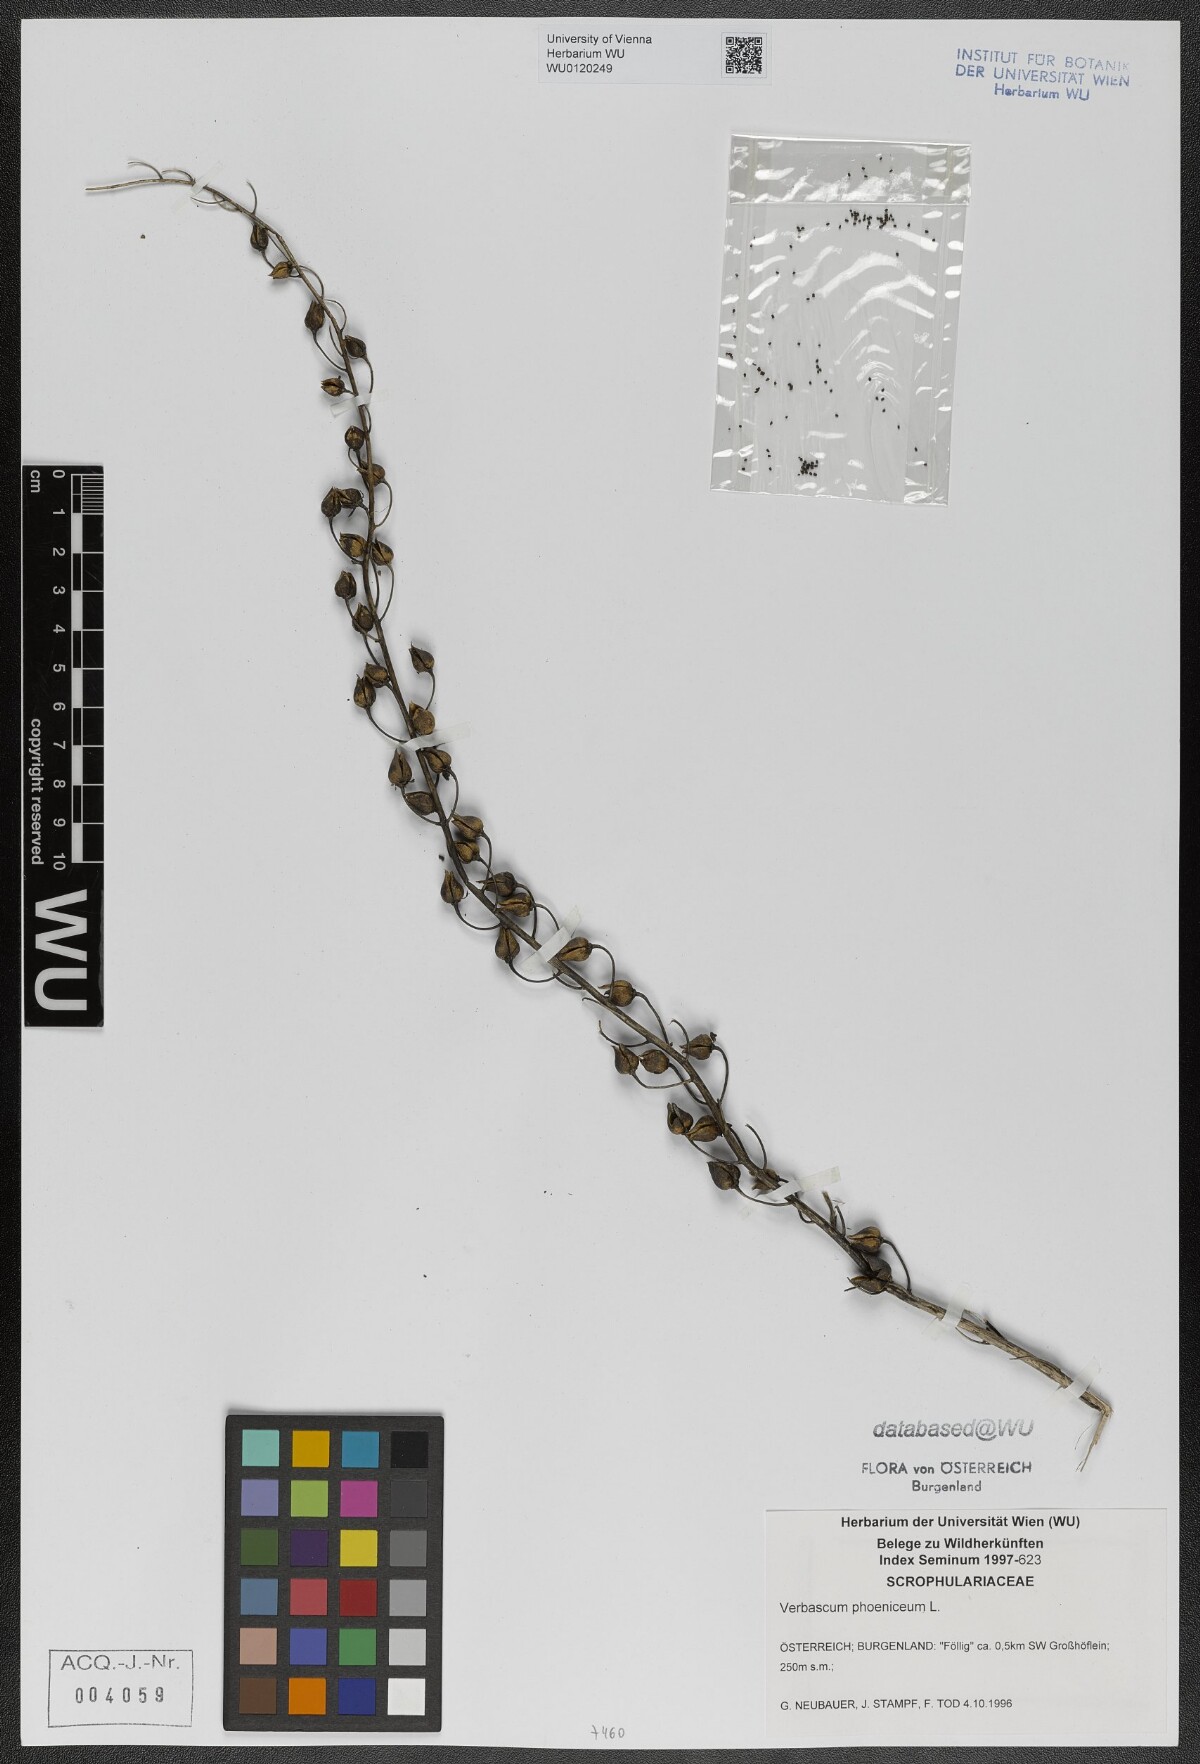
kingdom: Plantae
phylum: Tracheophyta
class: Magnoliopsida
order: Lamiales
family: Scrophulariaceae
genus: Verbascum
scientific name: Verbascum phoeniceum
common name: Purple mullein
